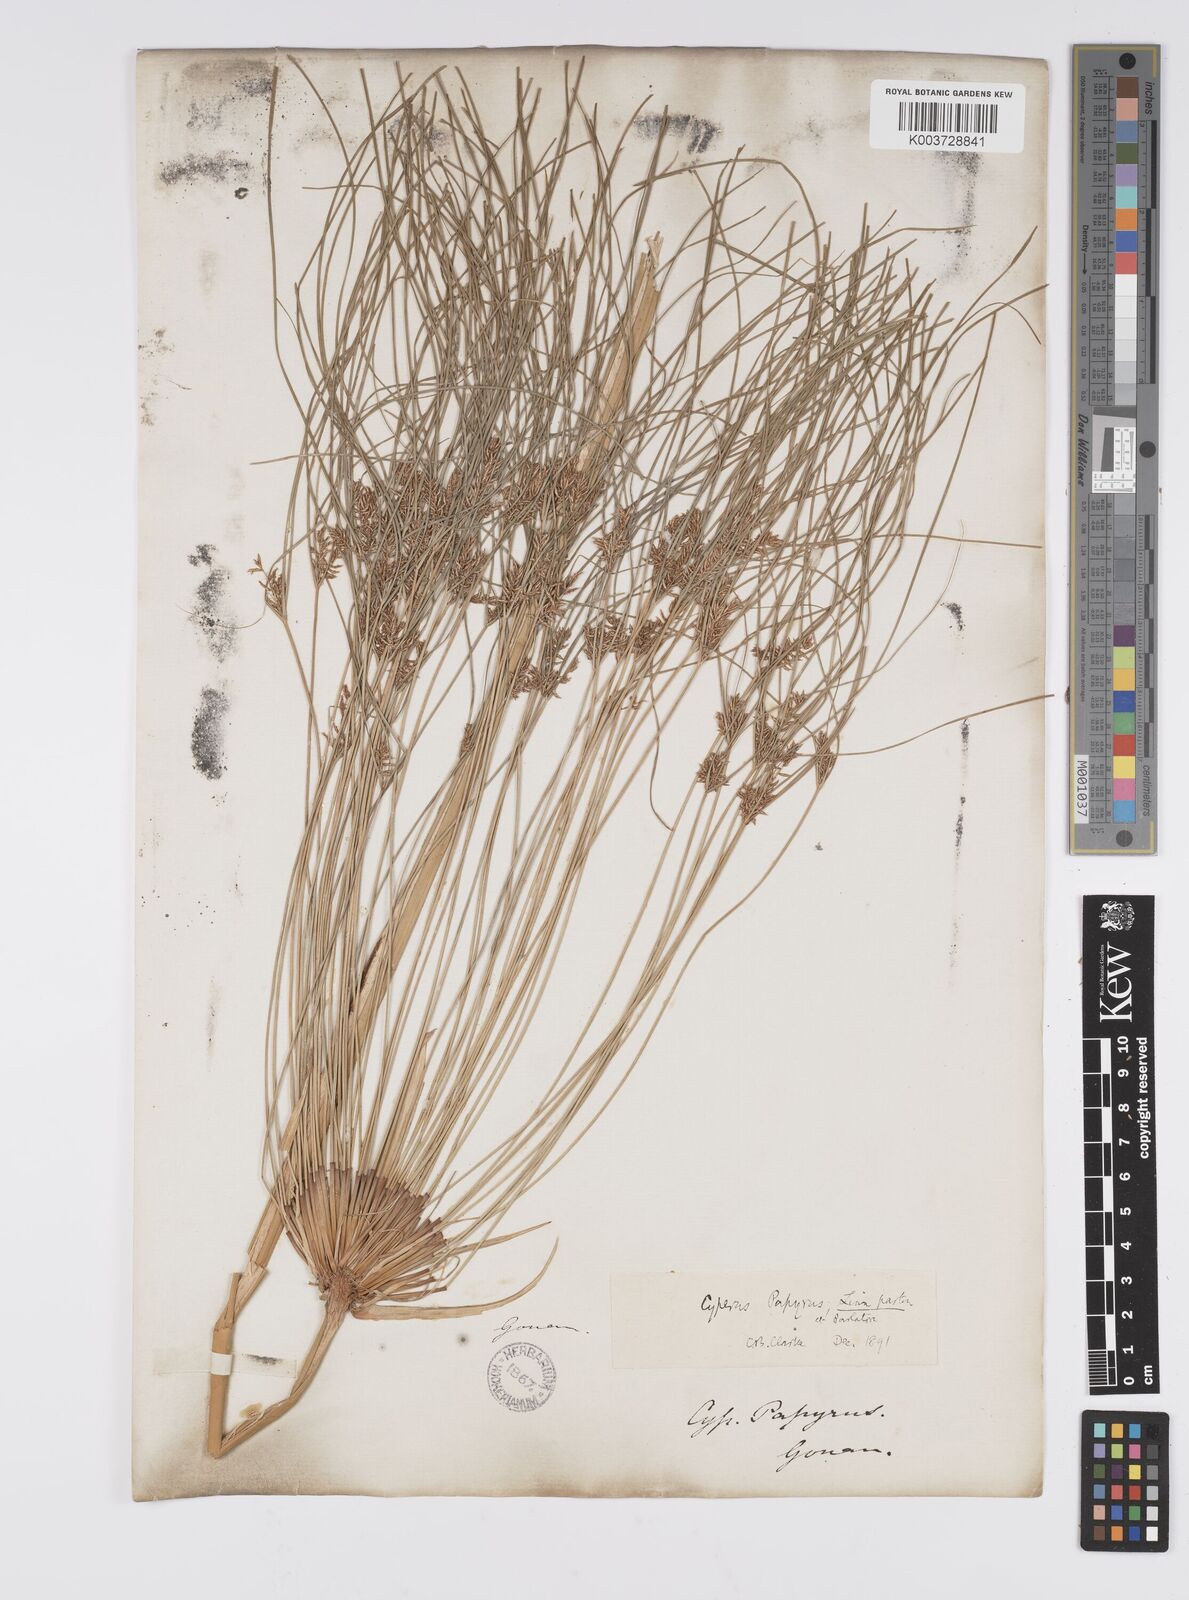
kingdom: Plantae
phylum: Tracheophyta
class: Liliopsida
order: Poales
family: Cyperaceae
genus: Cyperus
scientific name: Cyperus papyrus
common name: Papyrus
